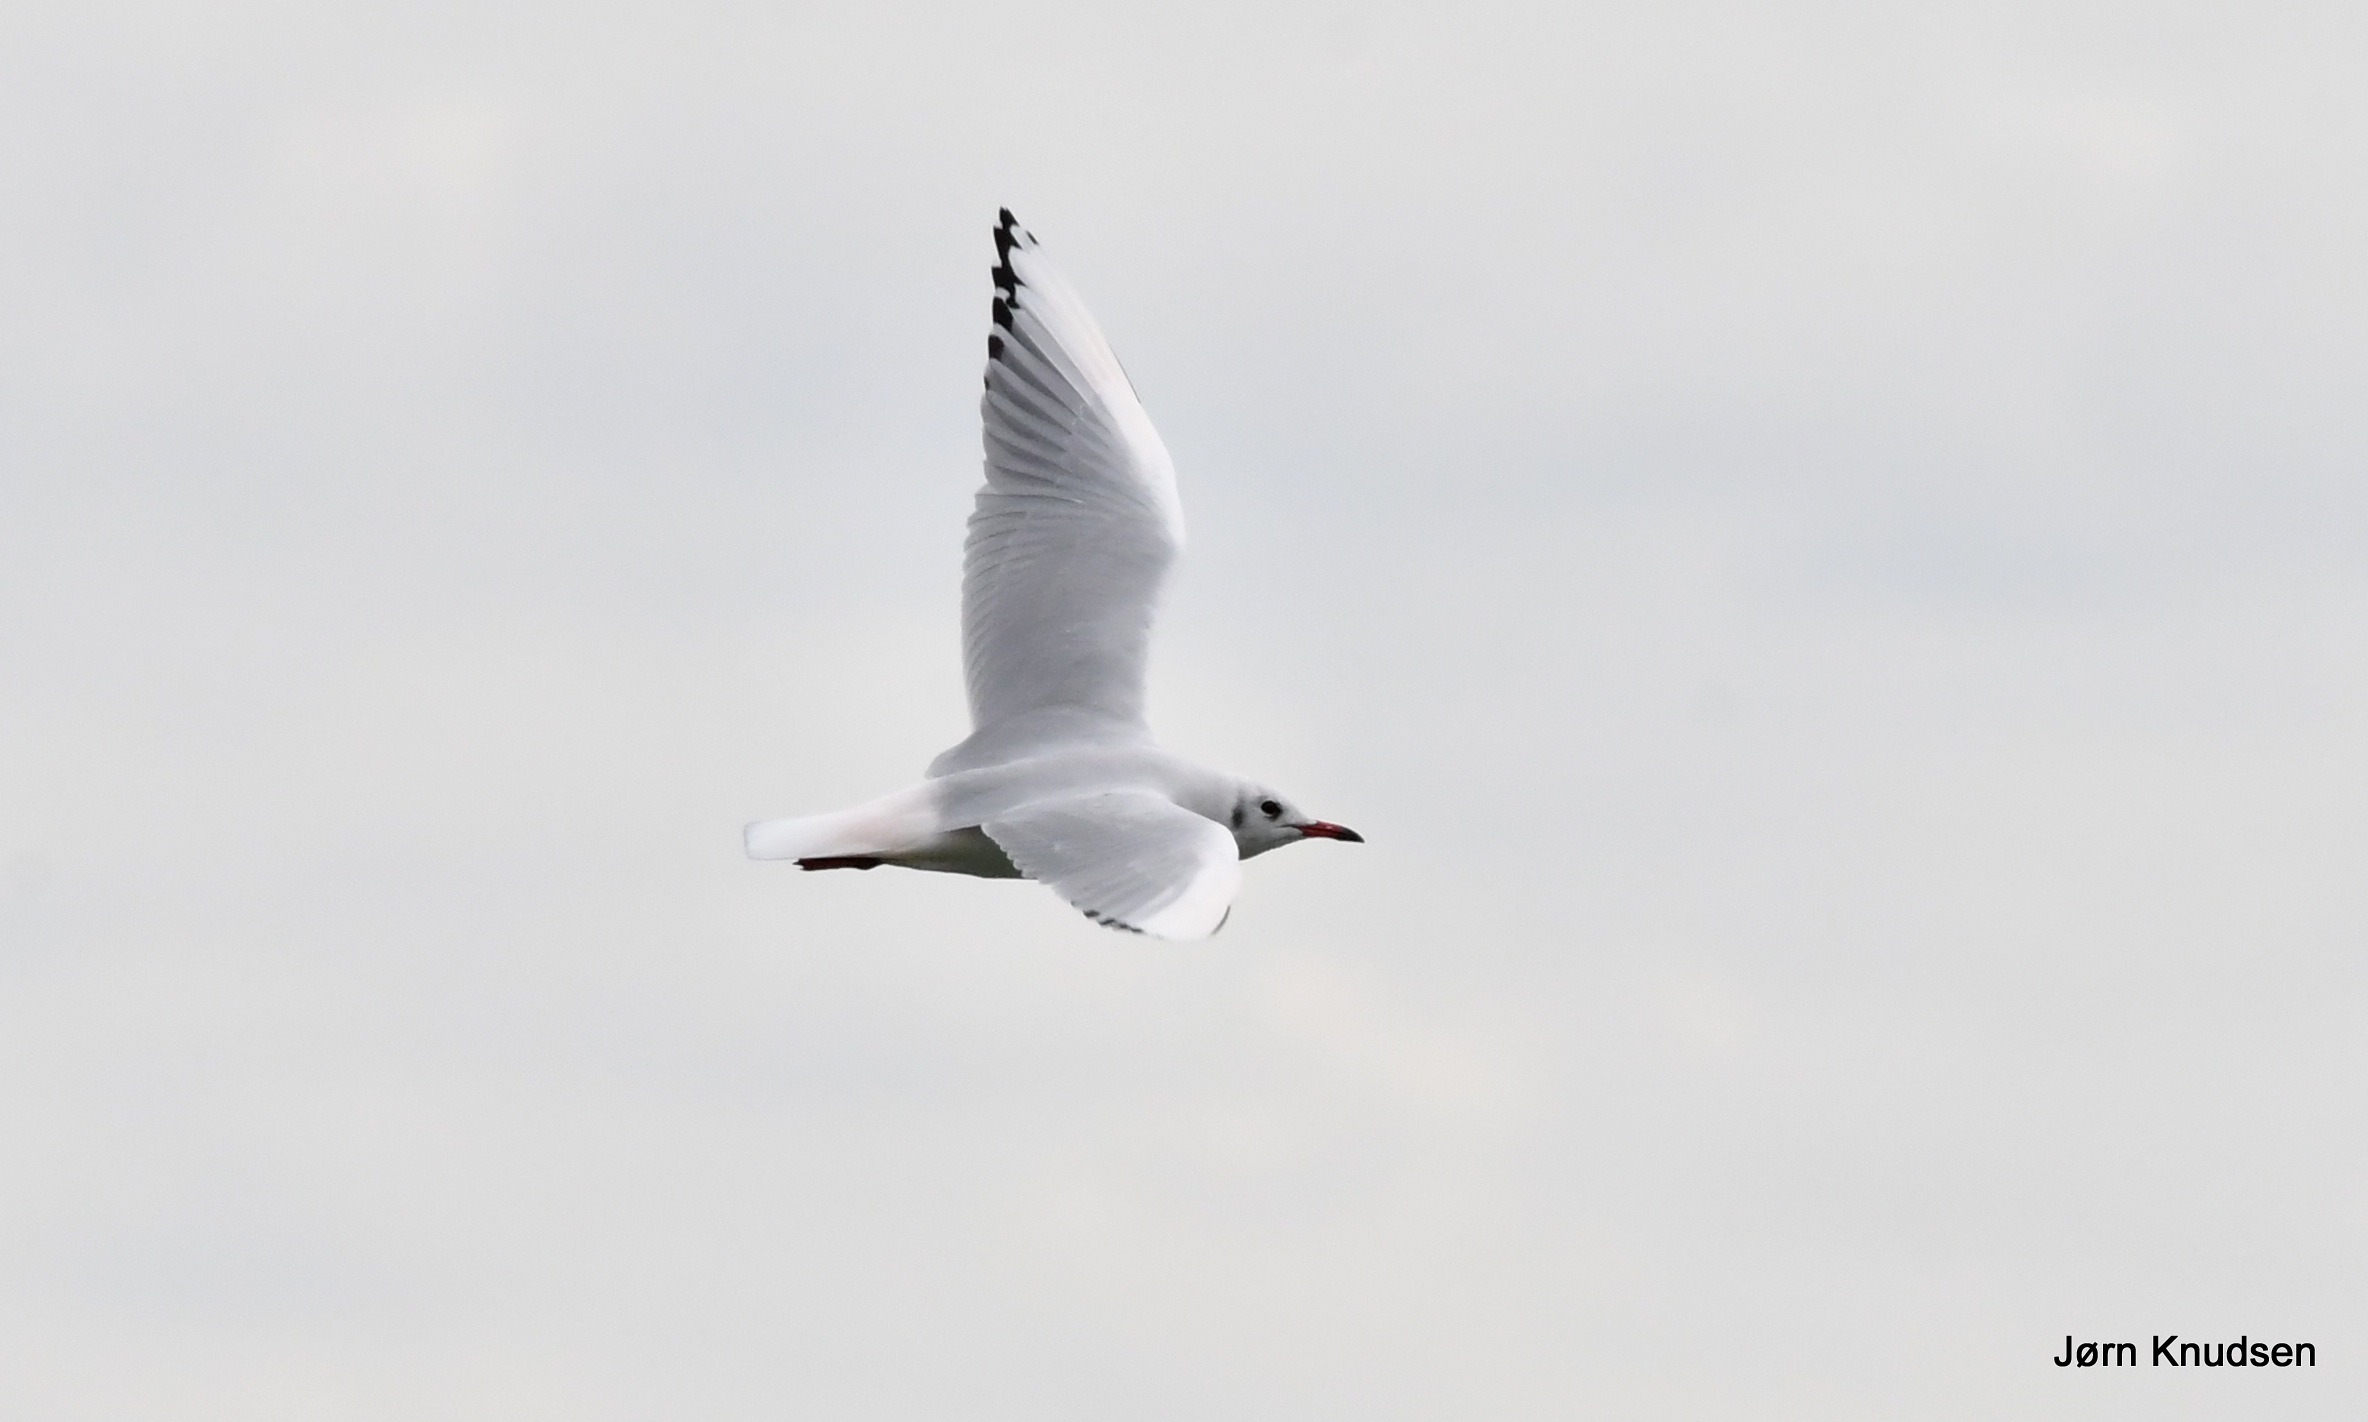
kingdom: Animalia
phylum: Chordata
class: Aves
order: Charadriiformes
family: Laridae
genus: Chroicocephalus
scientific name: Chroicocephalus ridibundus
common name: Hættemåge
